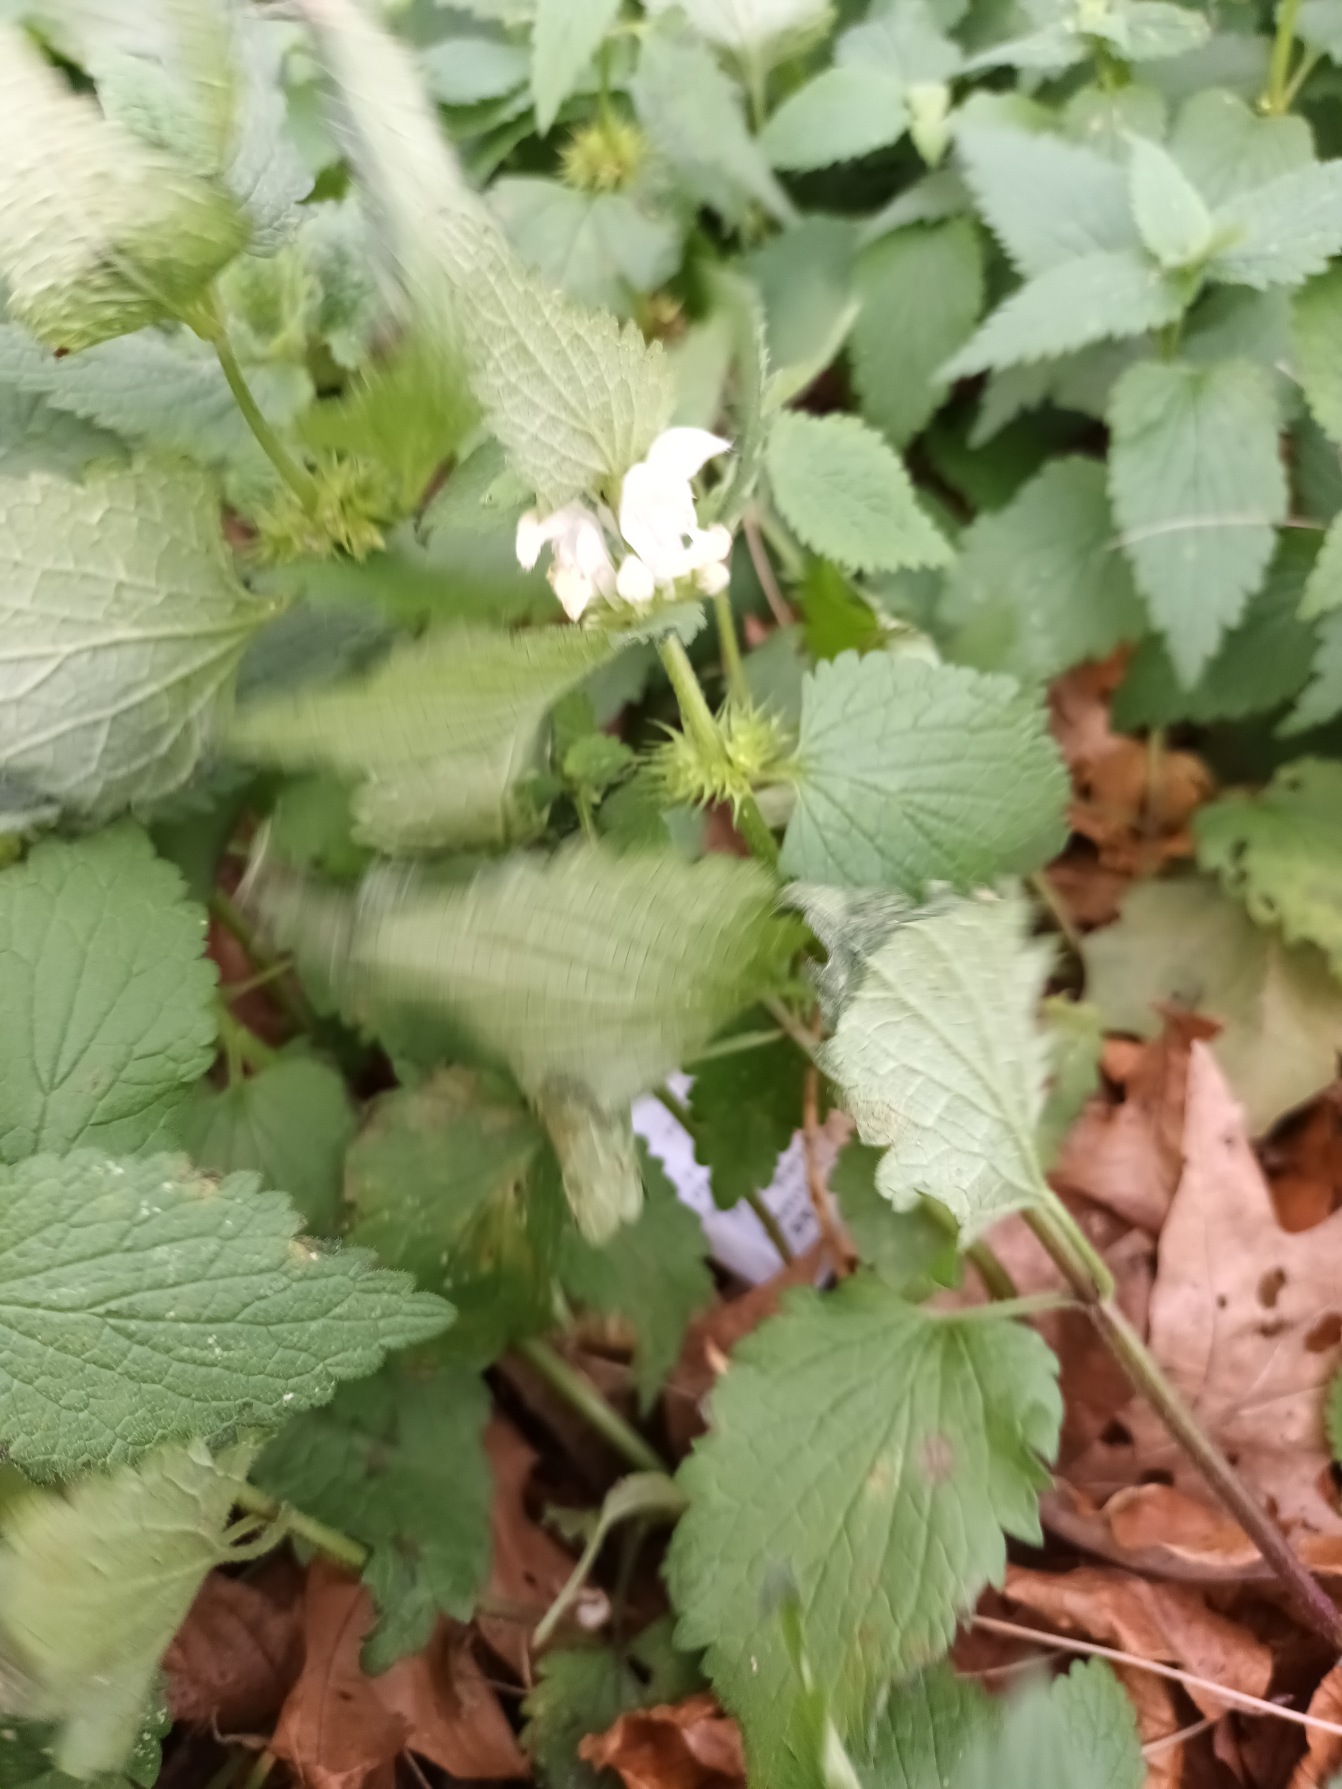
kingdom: Plantae
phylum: Tracheophyta
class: Magnoliopsida
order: Lamiales
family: Lamiaceae
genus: Lamium
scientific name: Lamium album
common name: Døvnælde
